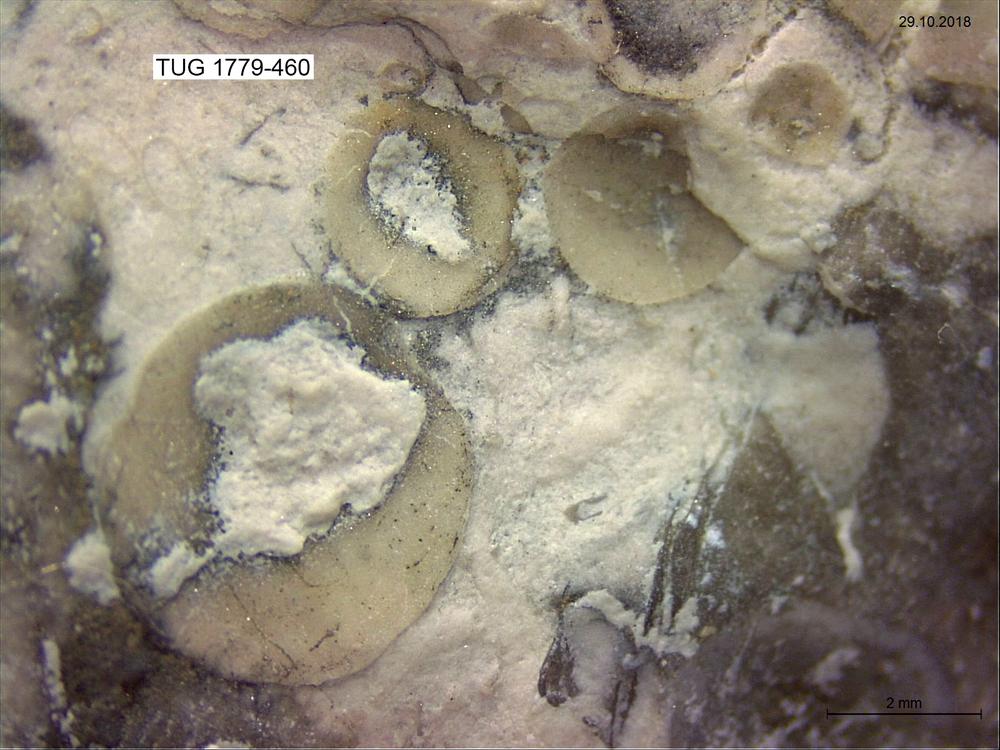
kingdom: Animalia
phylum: Brachiopoda
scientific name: Brachiopoda
